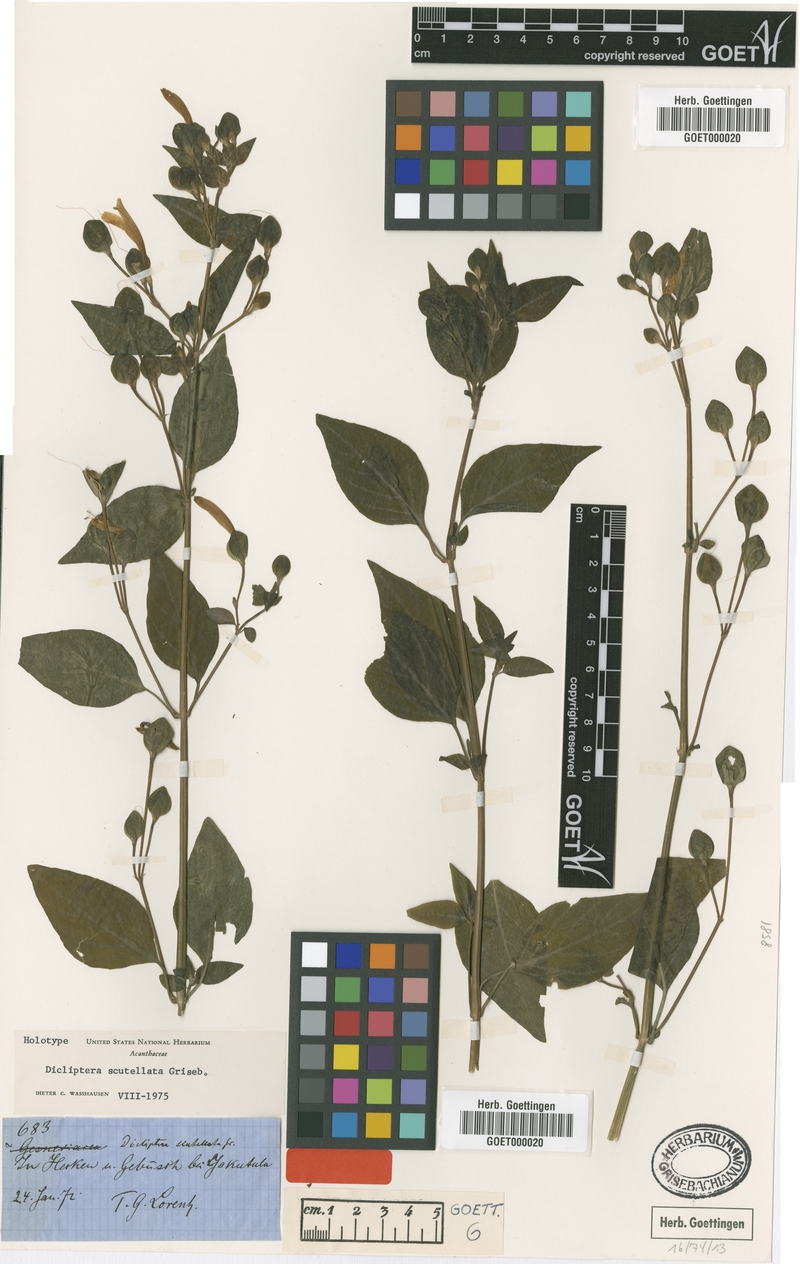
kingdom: Plantae
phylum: Tracheophyta
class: Magnoliopsida
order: Lamiales
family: Acanthaceae
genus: Dicliptera
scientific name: Dicliptera scutellata
